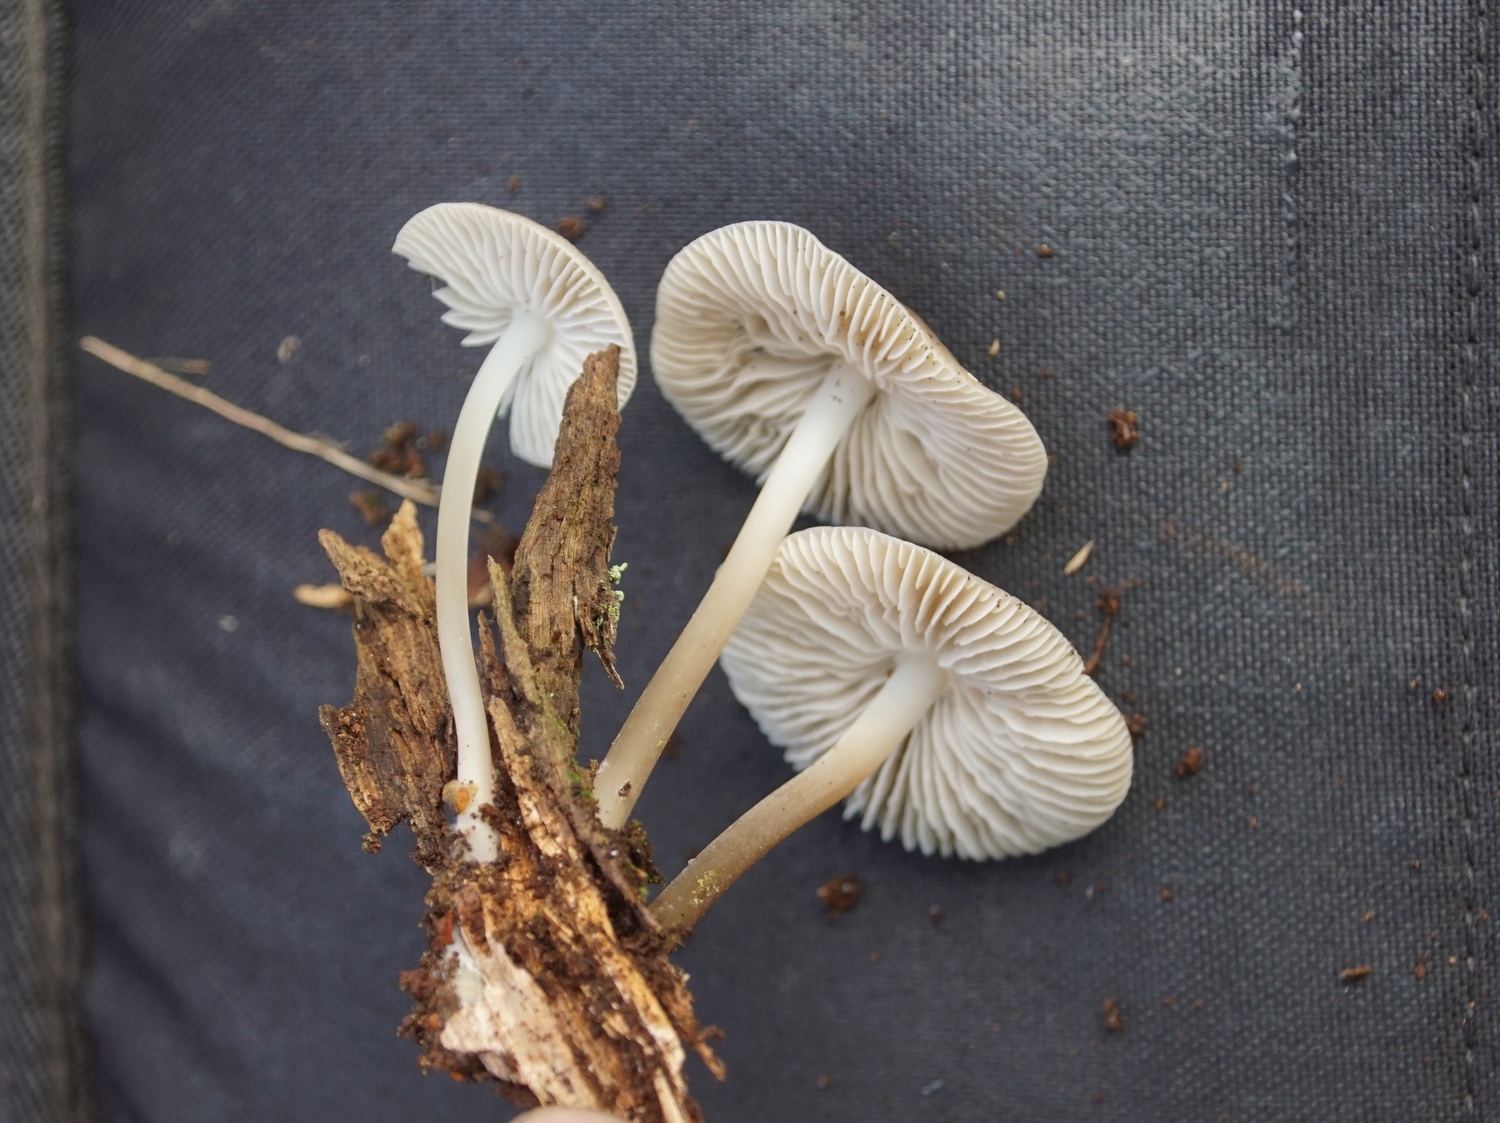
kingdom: Fungi
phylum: Basidiomycota
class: Agaricomycetes
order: Agaricales
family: Mycenaceae
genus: Mycena
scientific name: Mycena galericulata
